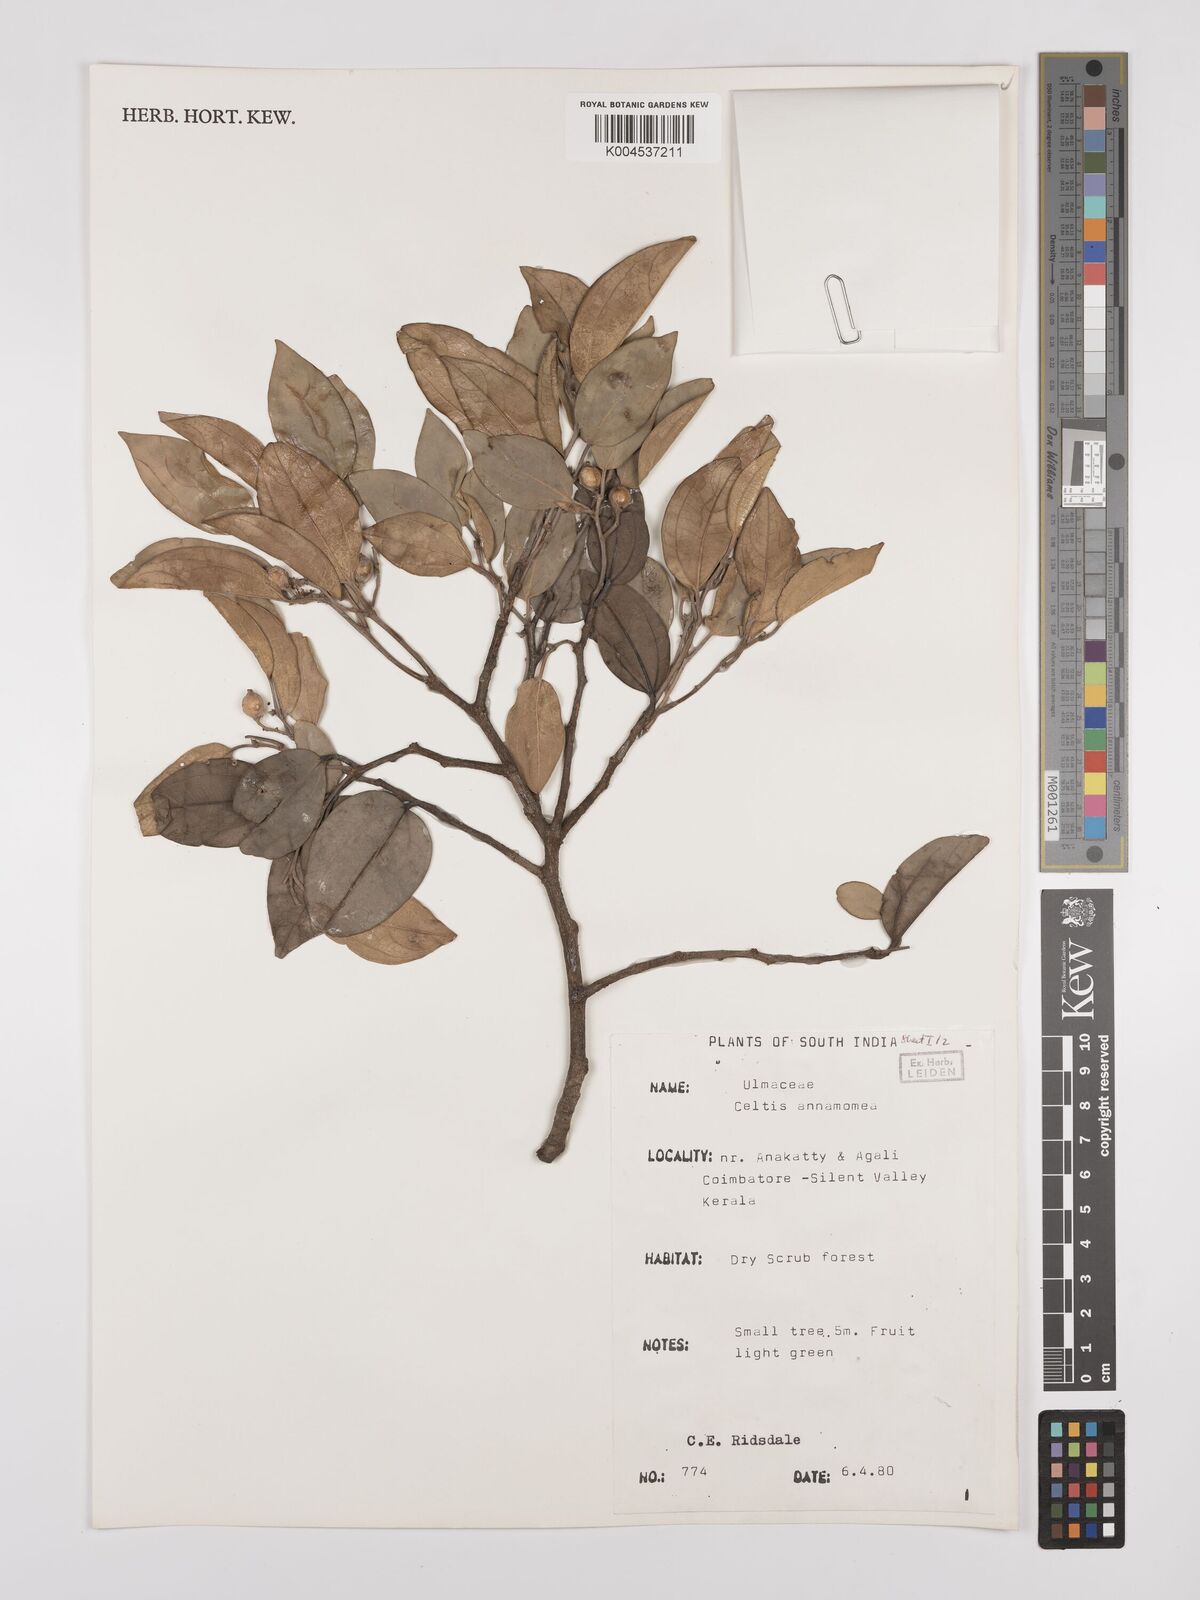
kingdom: Plantae
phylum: Tracheophyta
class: Magnoliopsida
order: Rosales
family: Cannabaceae
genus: Celtis
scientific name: Celtis timorensis
